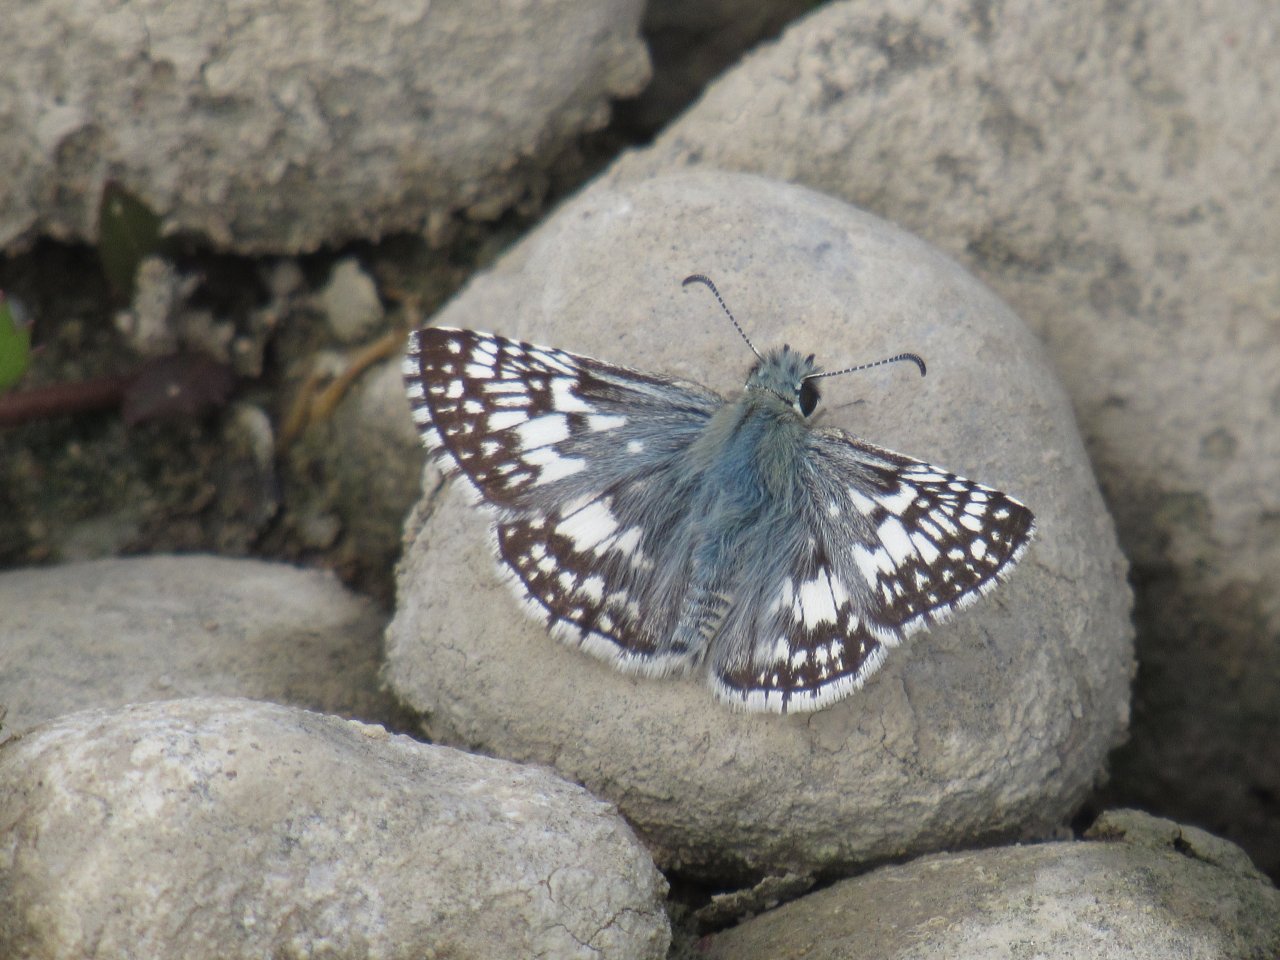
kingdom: Animalia
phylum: Arthropoda
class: Insecta
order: Lepidoptera
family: Hesperiidae
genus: Pyrgus
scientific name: Pyrgus communis
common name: Common Checkered-Skipper
